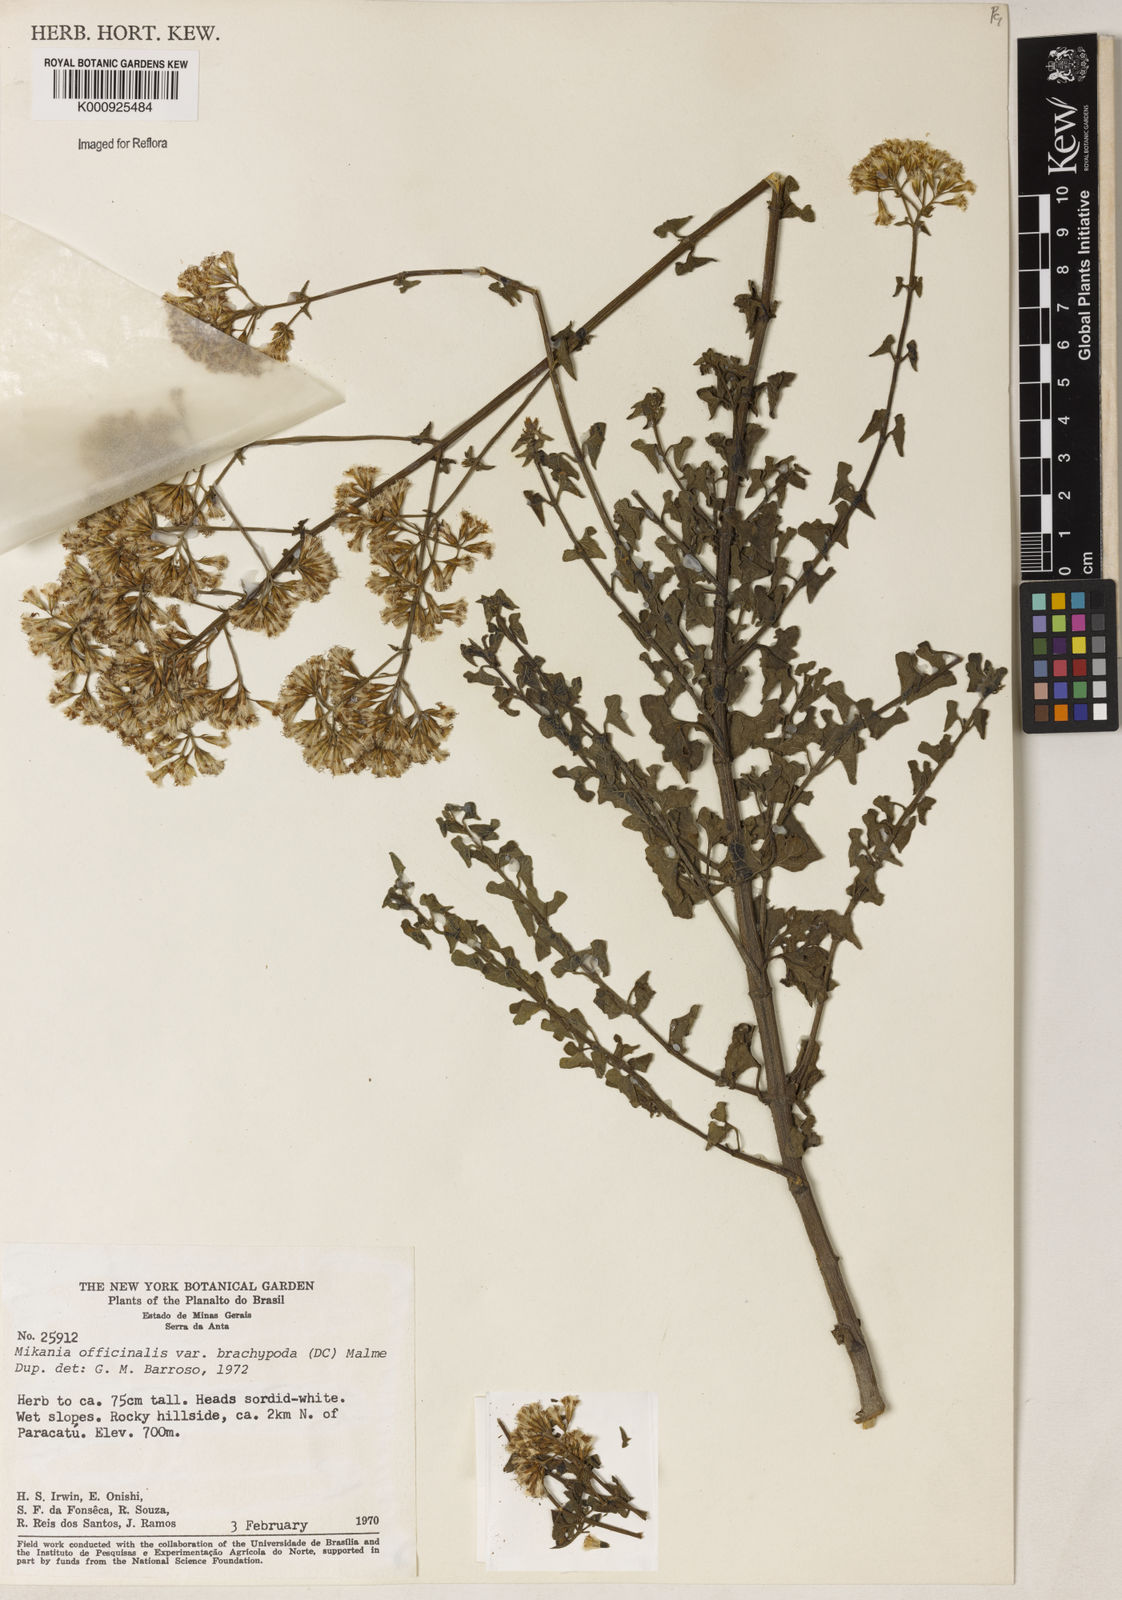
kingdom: Plantae
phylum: Tracheophyta
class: Magnoliopsida
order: Asterales
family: Asteraceae
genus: Mikania
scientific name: Mikania officinalis
